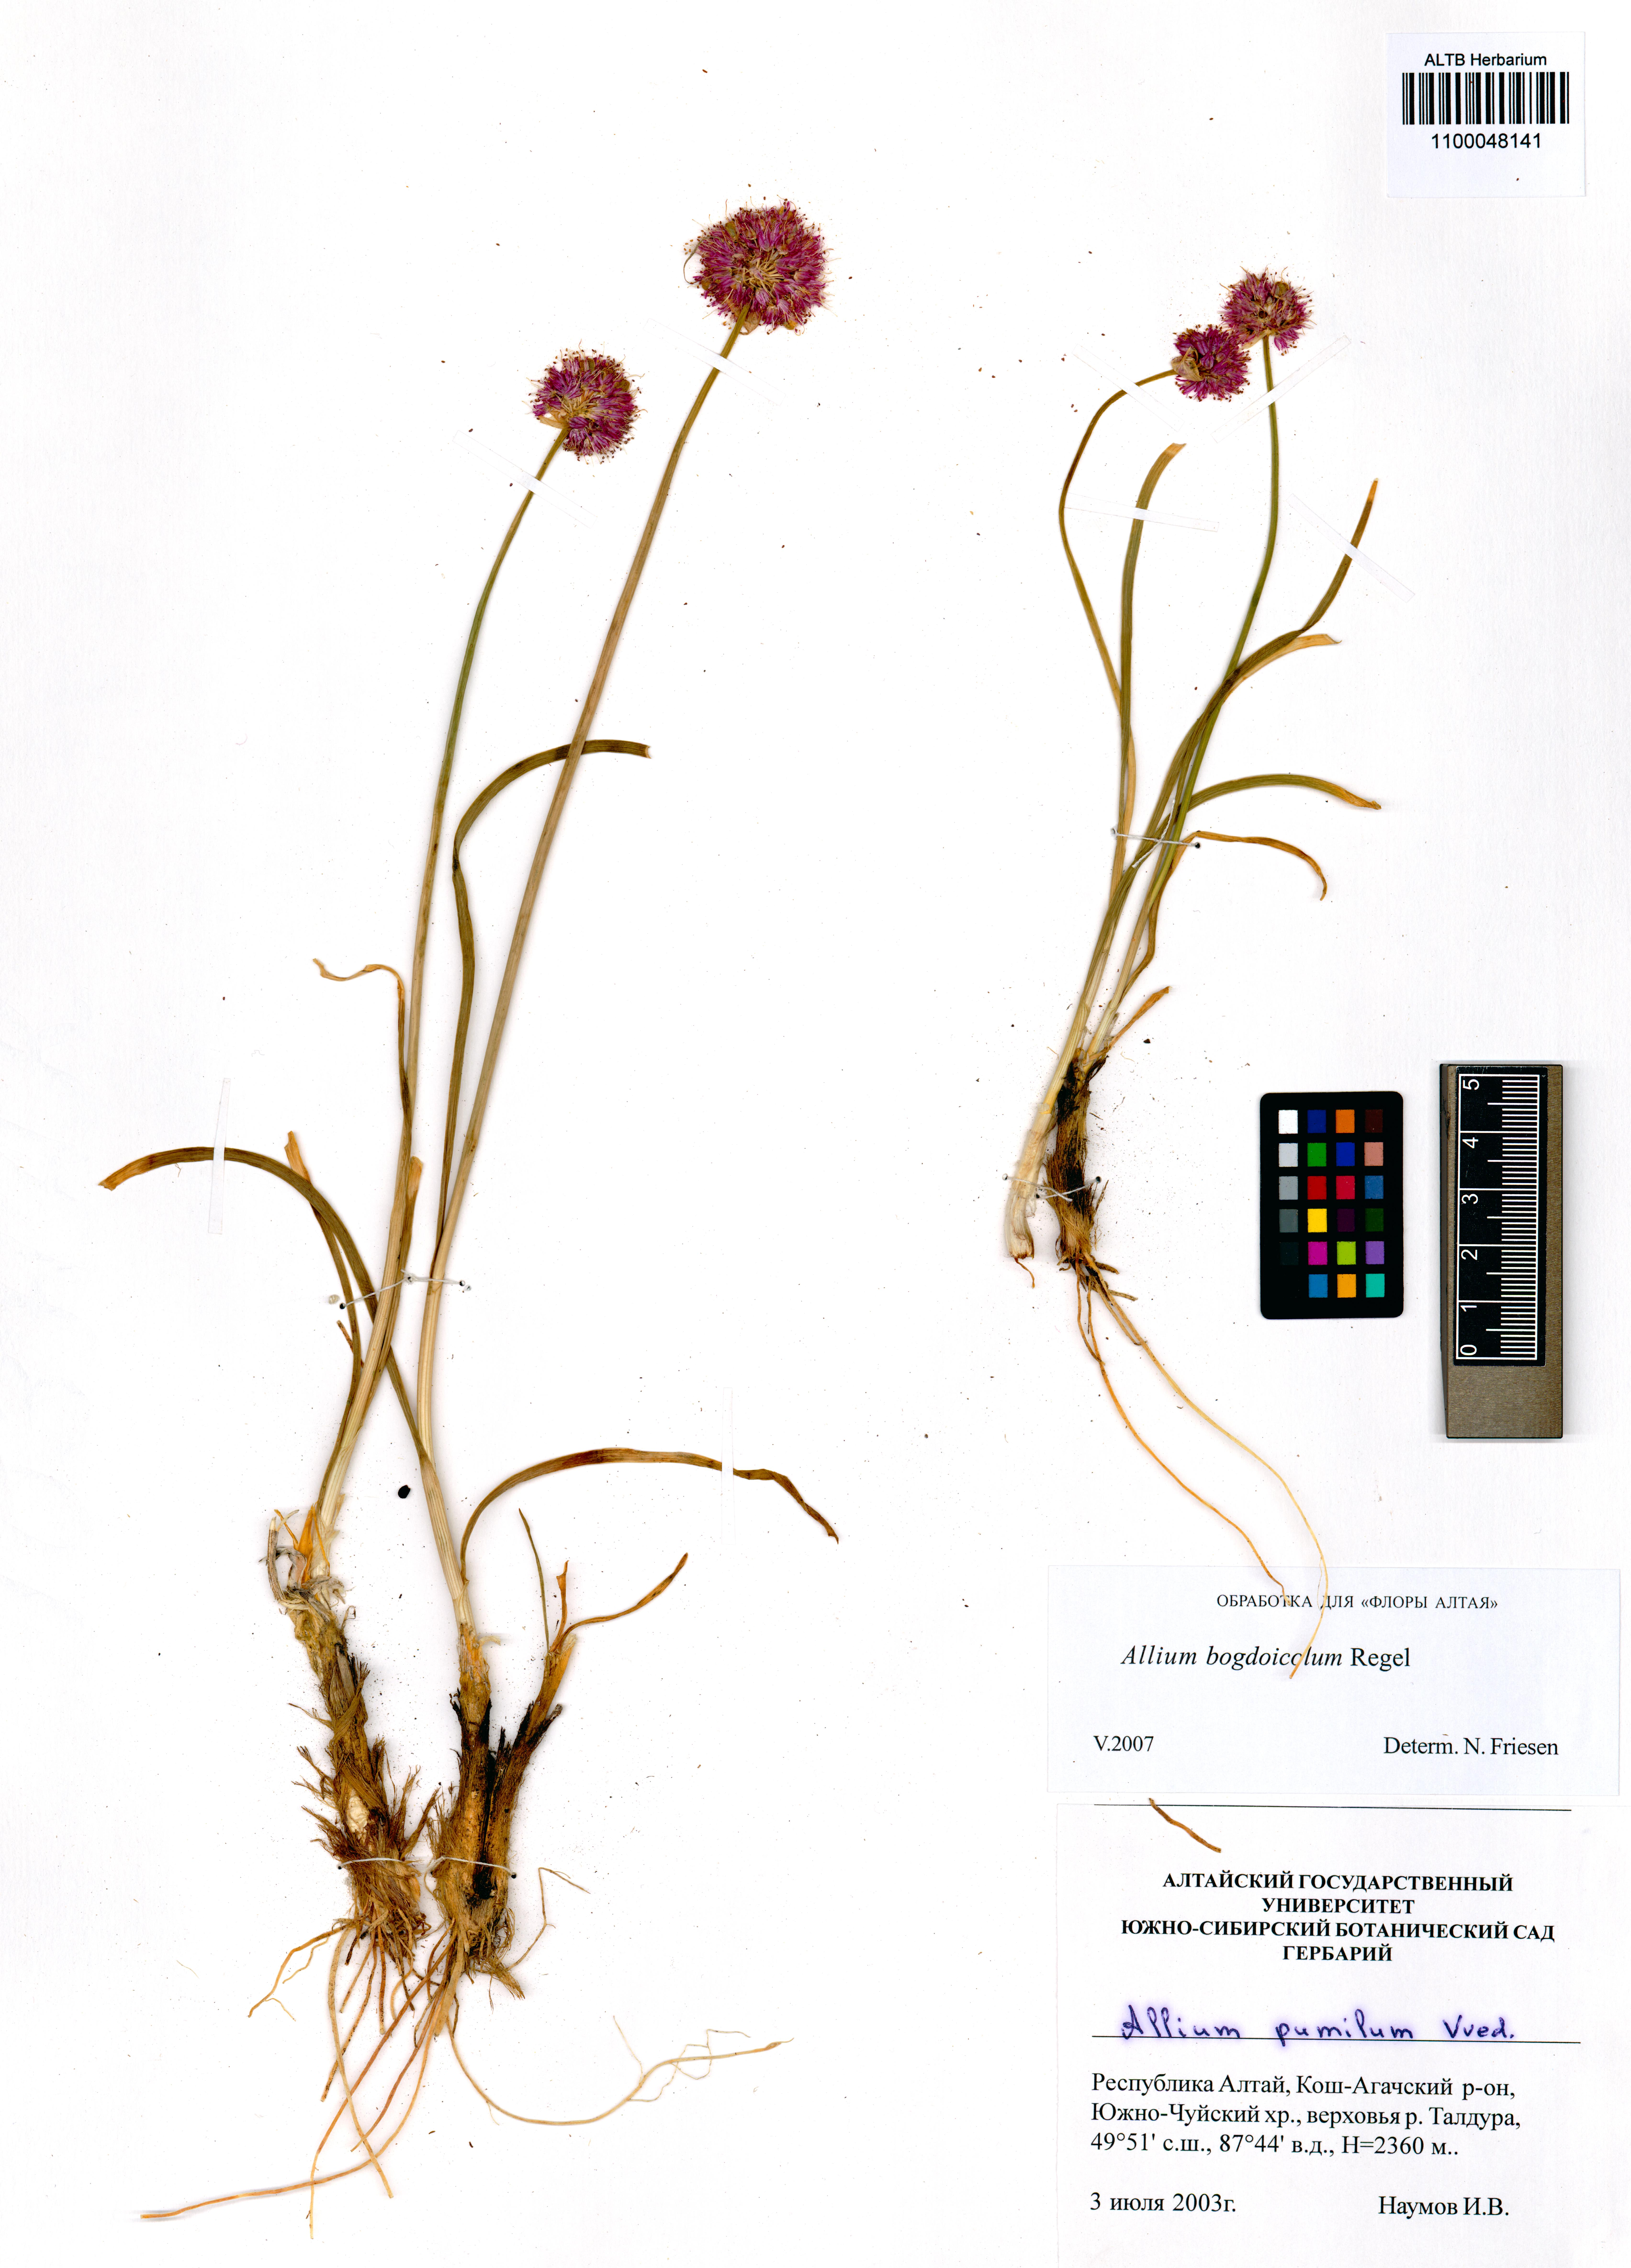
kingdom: Plantae
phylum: Tracheophyta
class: Liliopsida
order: Asparagales
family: Amaryllidaceae
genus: Allium
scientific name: Allium schrenkii
